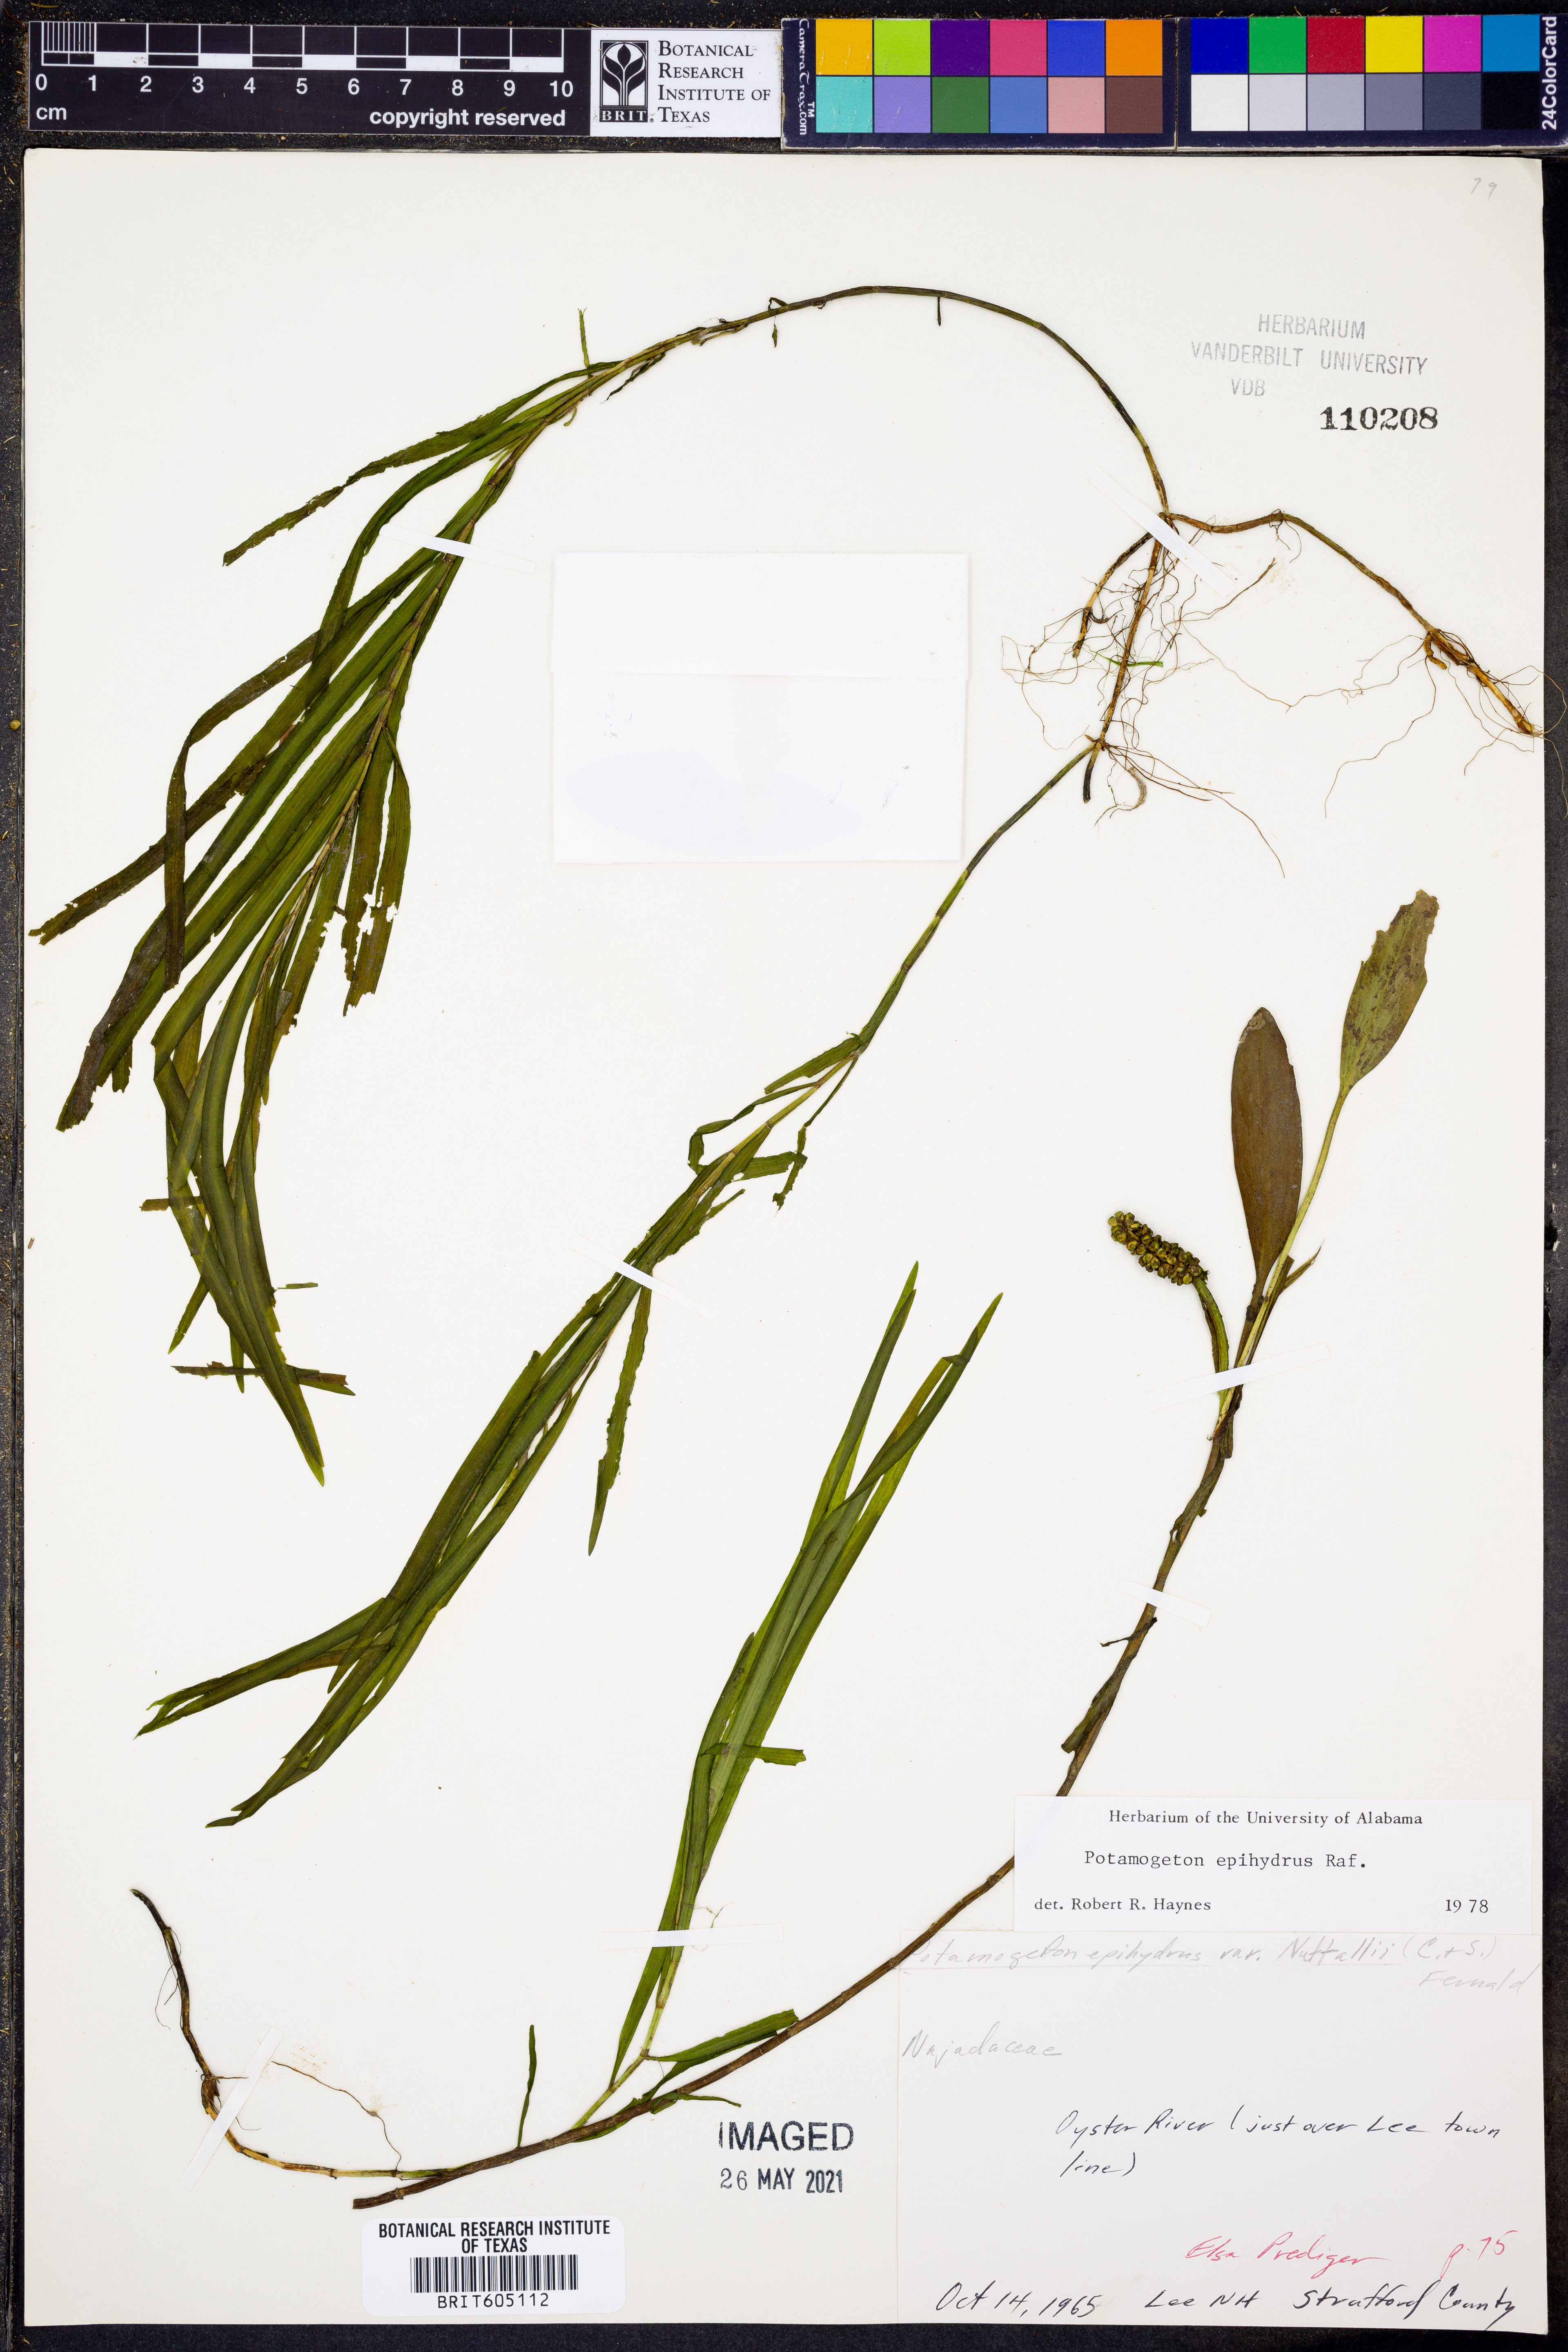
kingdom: Plantae
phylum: Tracheophyta
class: Liliopsida
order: Alismatales
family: Potamogetonaceae
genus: Potamogeton
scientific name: Potamogeton epihydrus
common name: American pondweed
